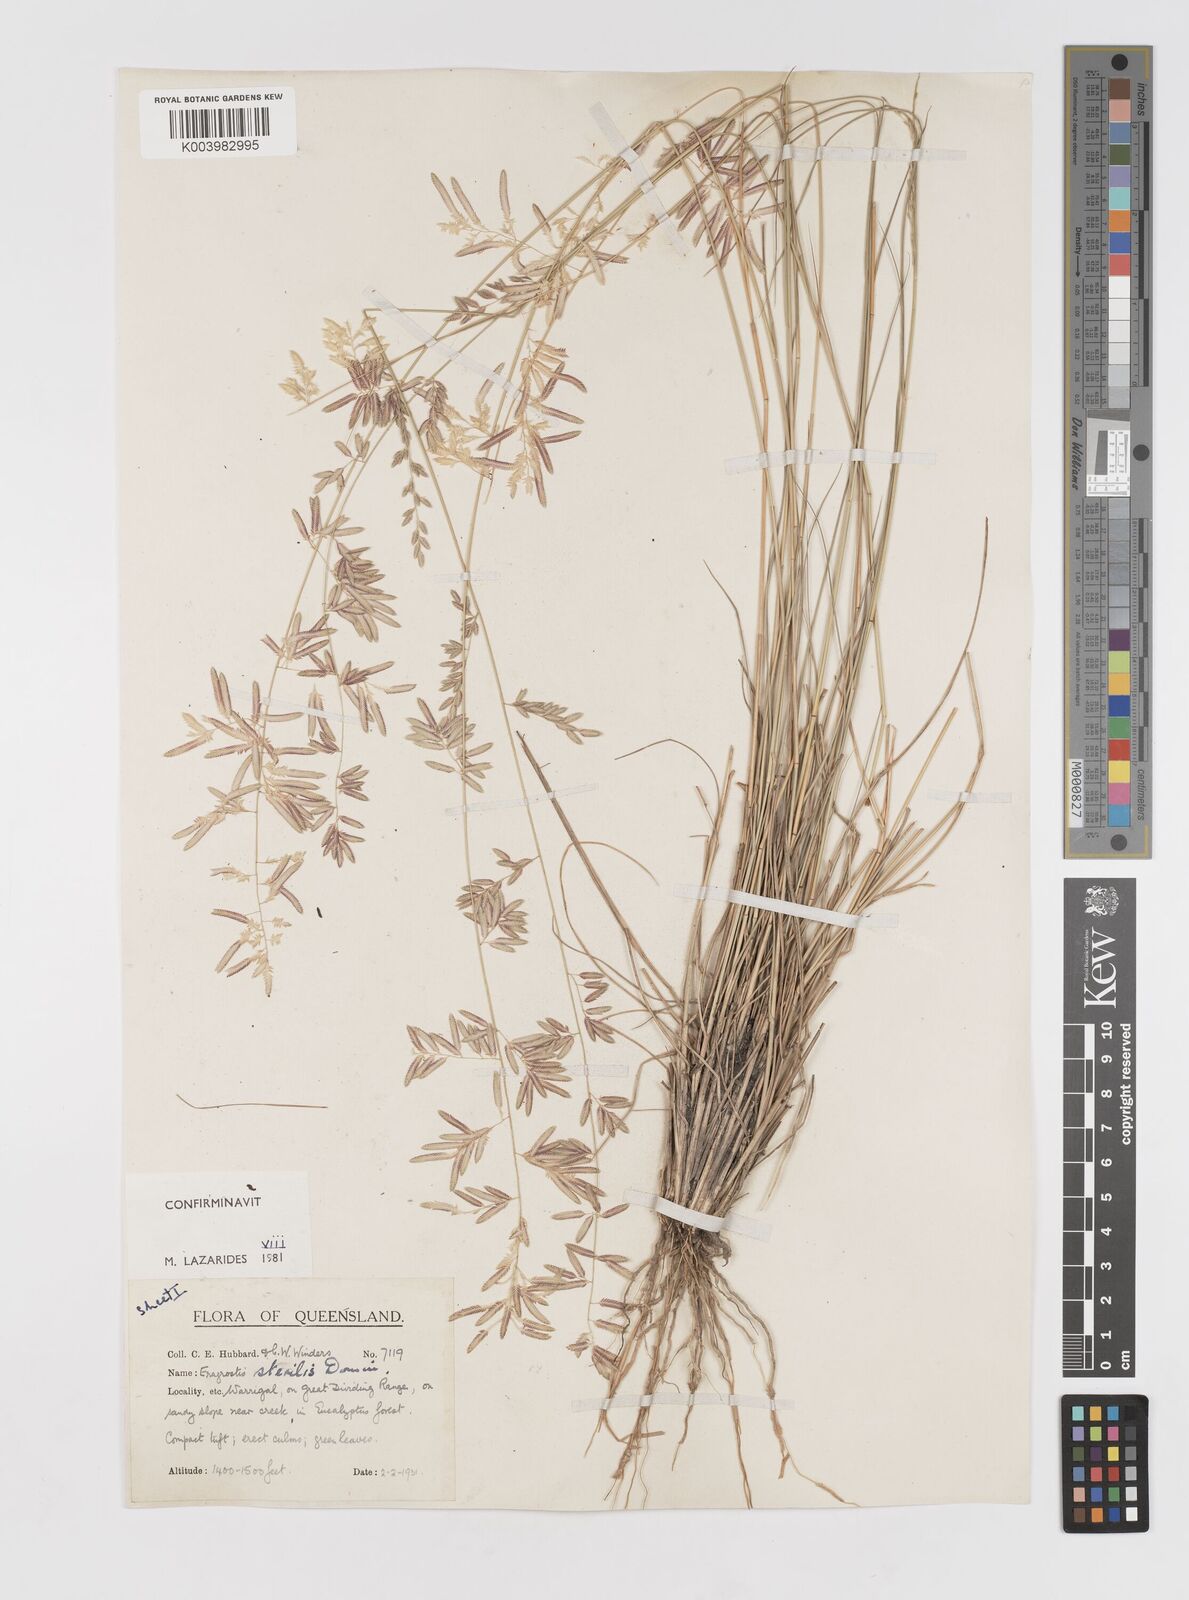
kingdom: Plantae
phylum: Tracheophyta
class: Liliopsida
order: Poales
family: Poaceae
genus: Eragrostis
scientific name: Eragrostis sterilis
